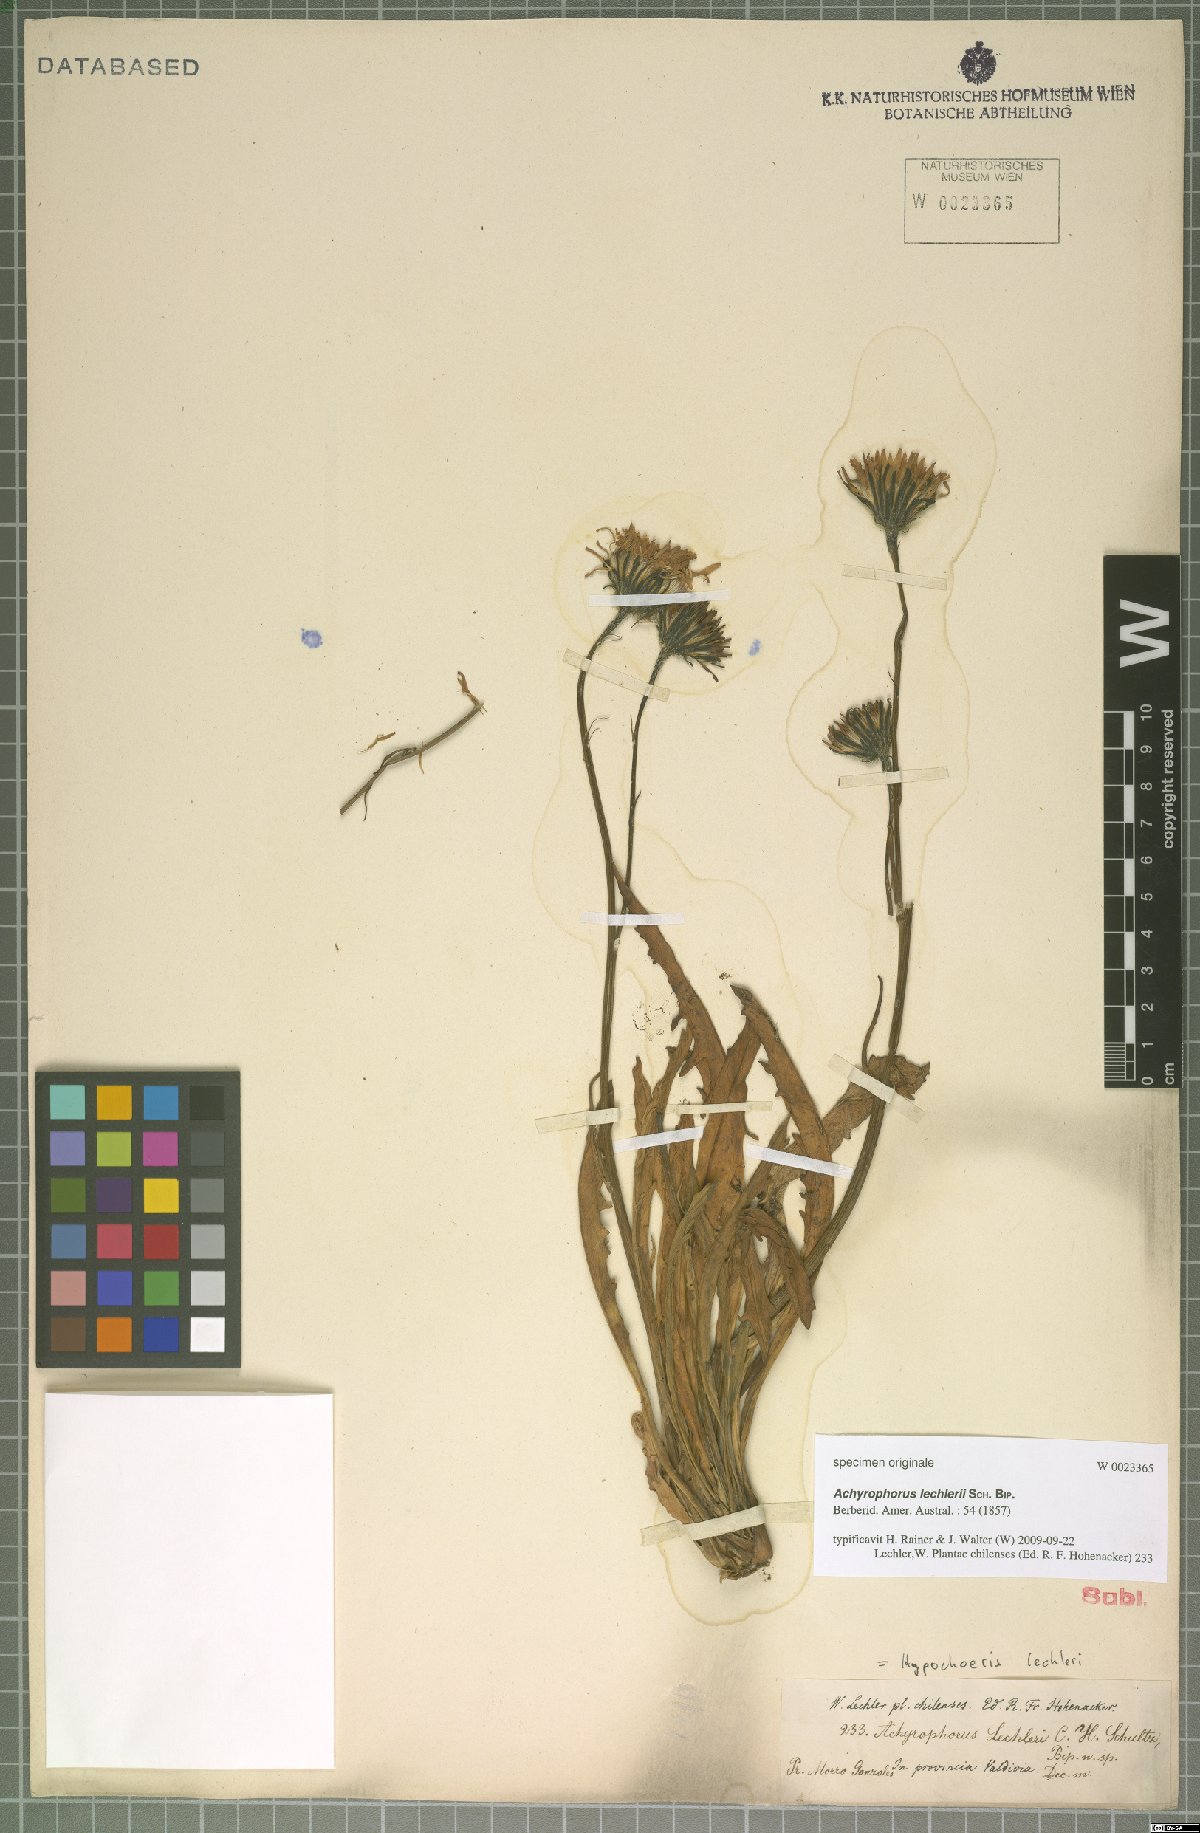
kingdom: Plantae
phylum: Tracheophyta
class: Magnoliopsida
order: Asterales
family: Asteraceae
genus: Hypochaeris
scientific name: Hypochaeris apargioides
